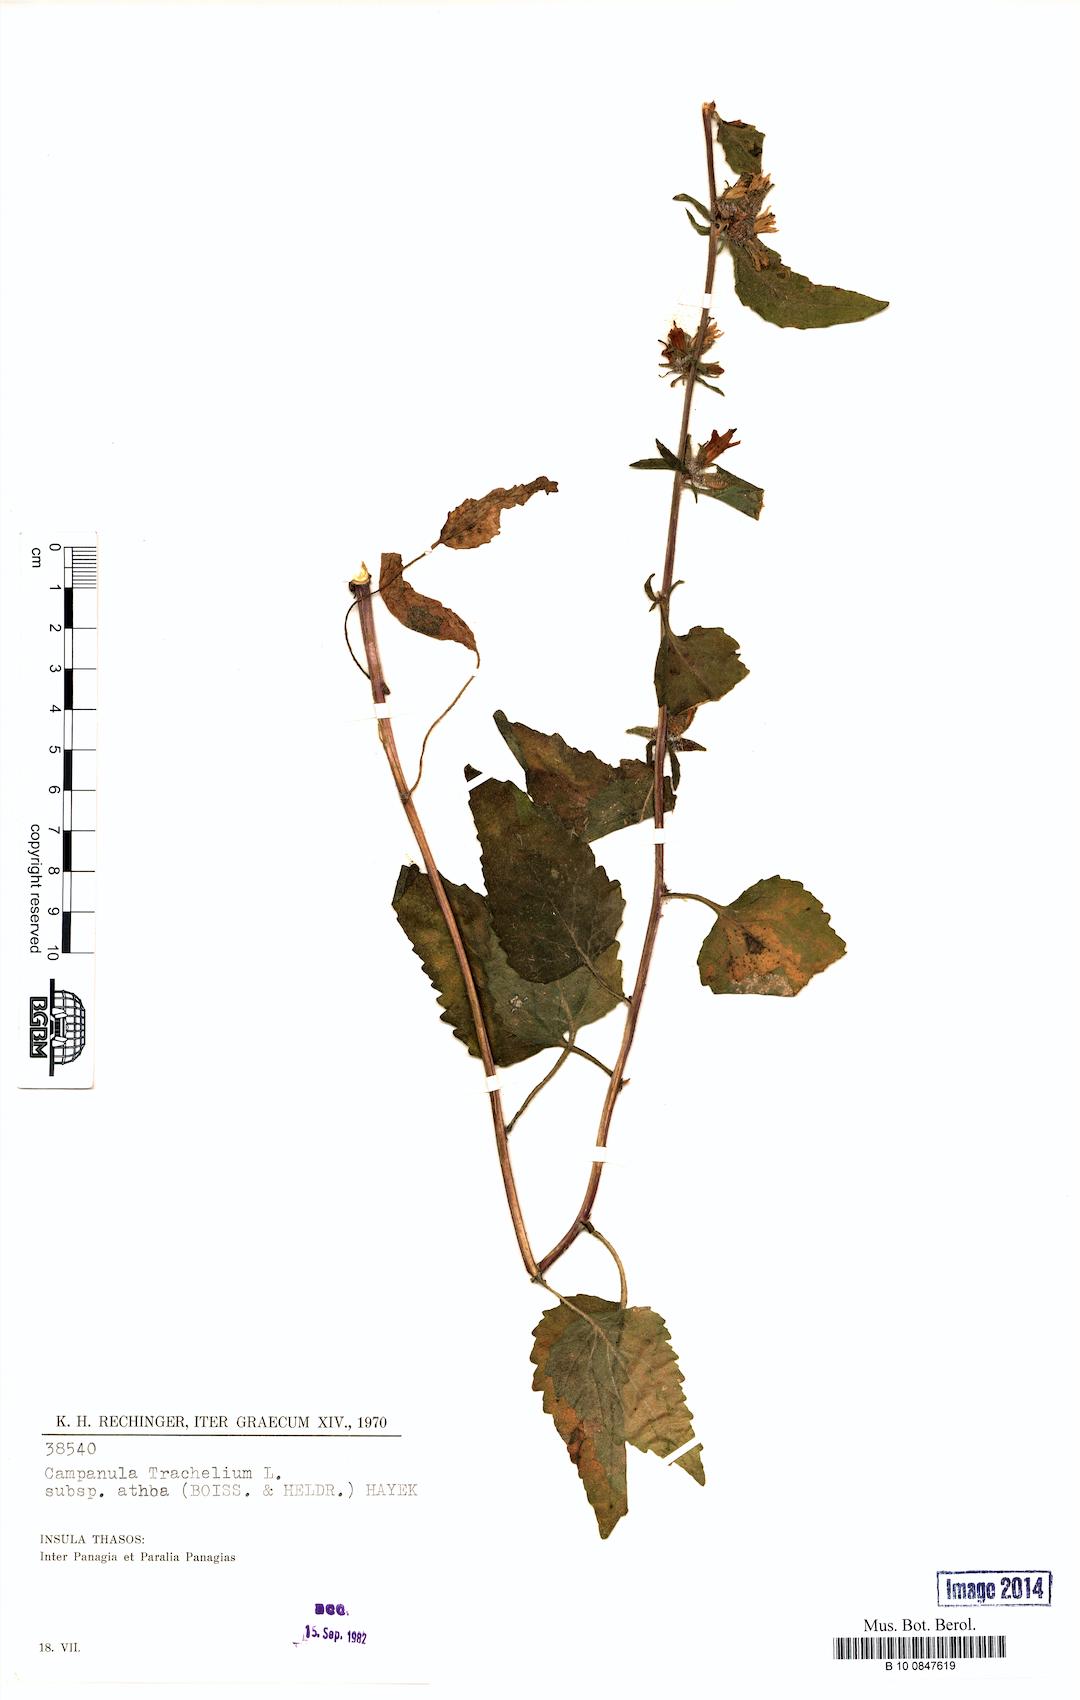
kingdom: Plantae
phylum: Tracheophyta
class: Magnoliopsida
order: Asterales
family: Campanulaceae
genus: Campanula
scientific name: Campanula trachelium
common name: Nettle-leaved bellflower
